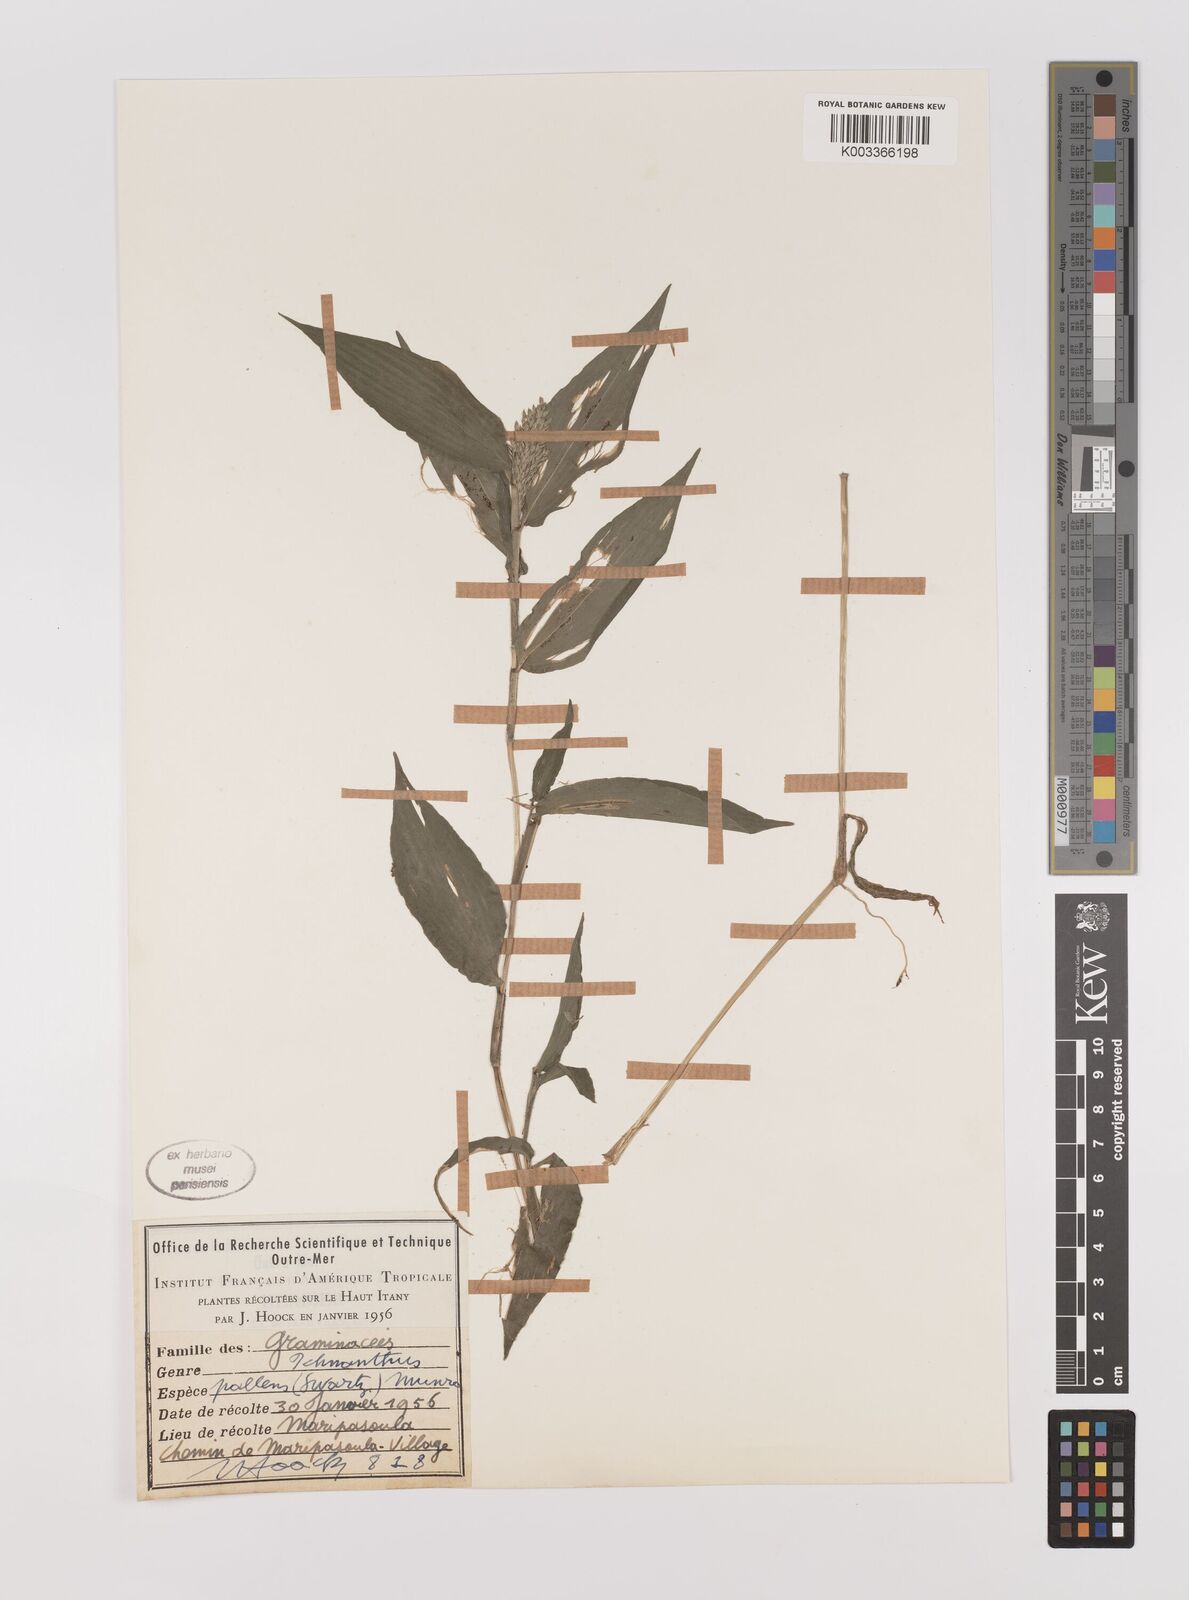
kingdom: Plantae
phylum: Tracheophyta
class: Liliopsida
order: Poales
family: Poaceae
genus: Ichnanthus
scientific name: Ichnanthus pallens
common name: Water grass
